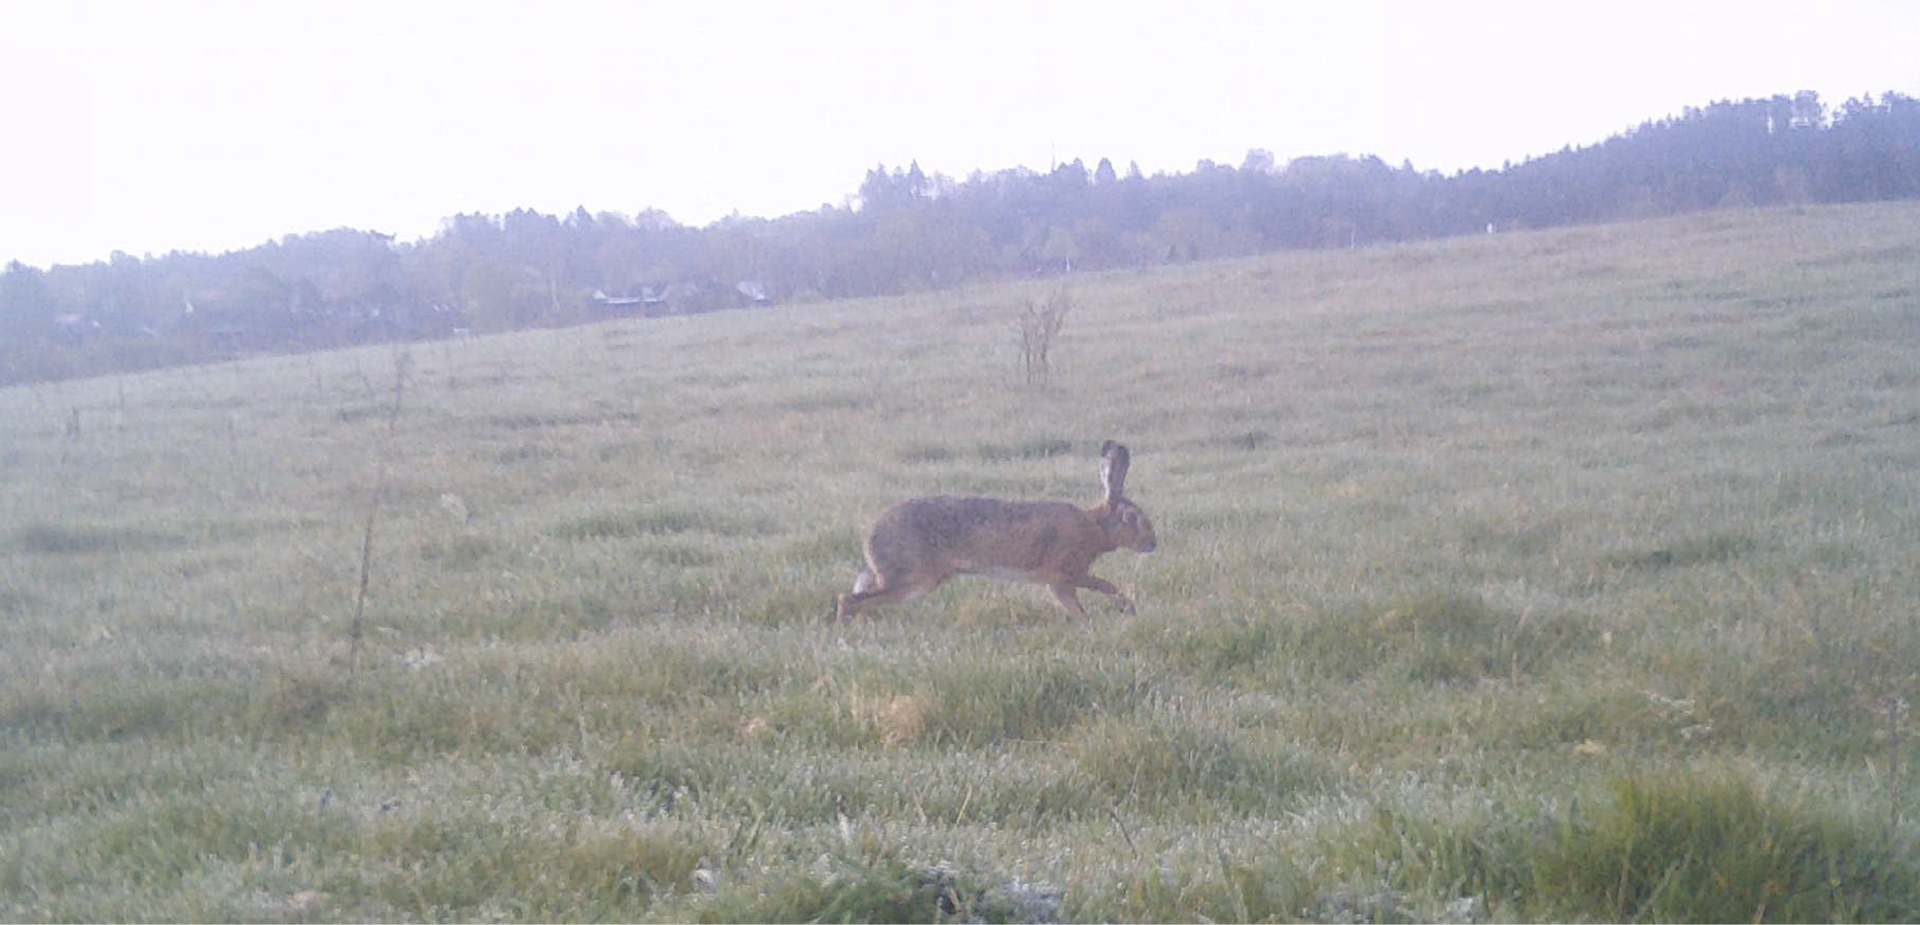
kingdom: Animalia
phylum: Chordata
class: Mammalia
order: Lagomorpha
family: Leporidae
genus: Lepus
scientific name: Lepus europaeus
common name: Hare
